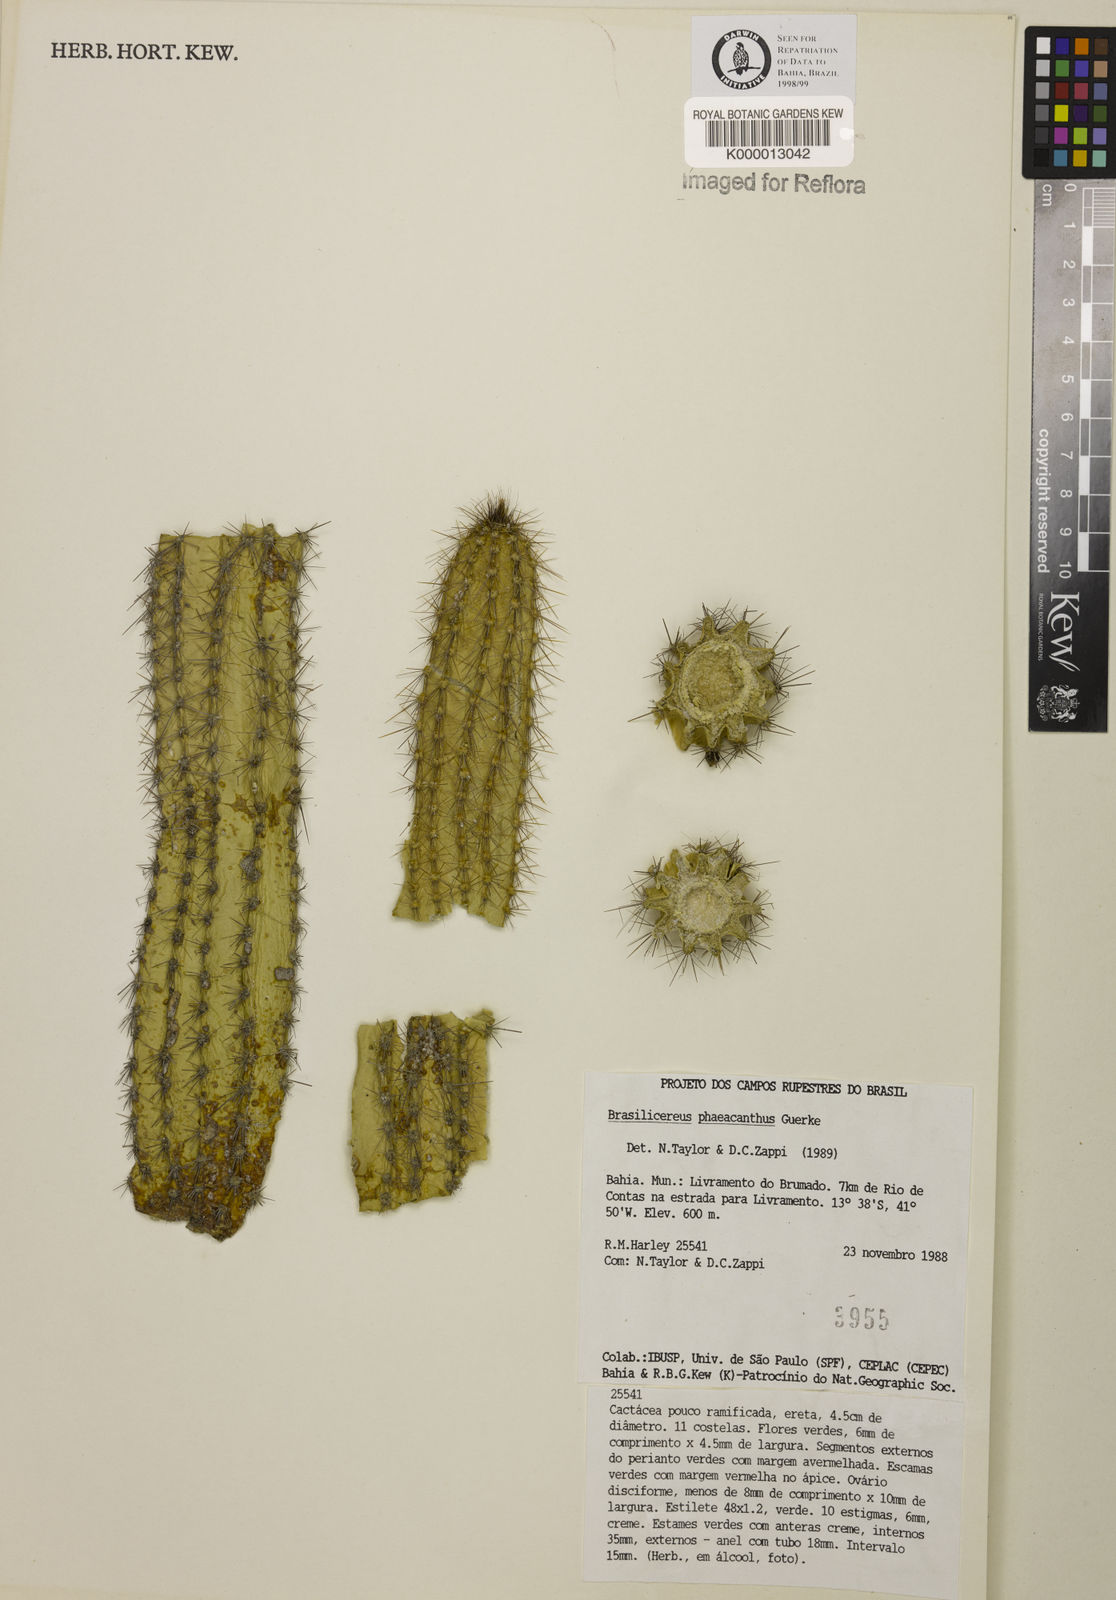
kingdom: Plantae
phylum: Tracheophyta
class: Magnoliopsida
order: Caryophyllales
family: Cactaceae
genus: Brasilicereus
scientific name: Brasilicereus phaeacanthus
